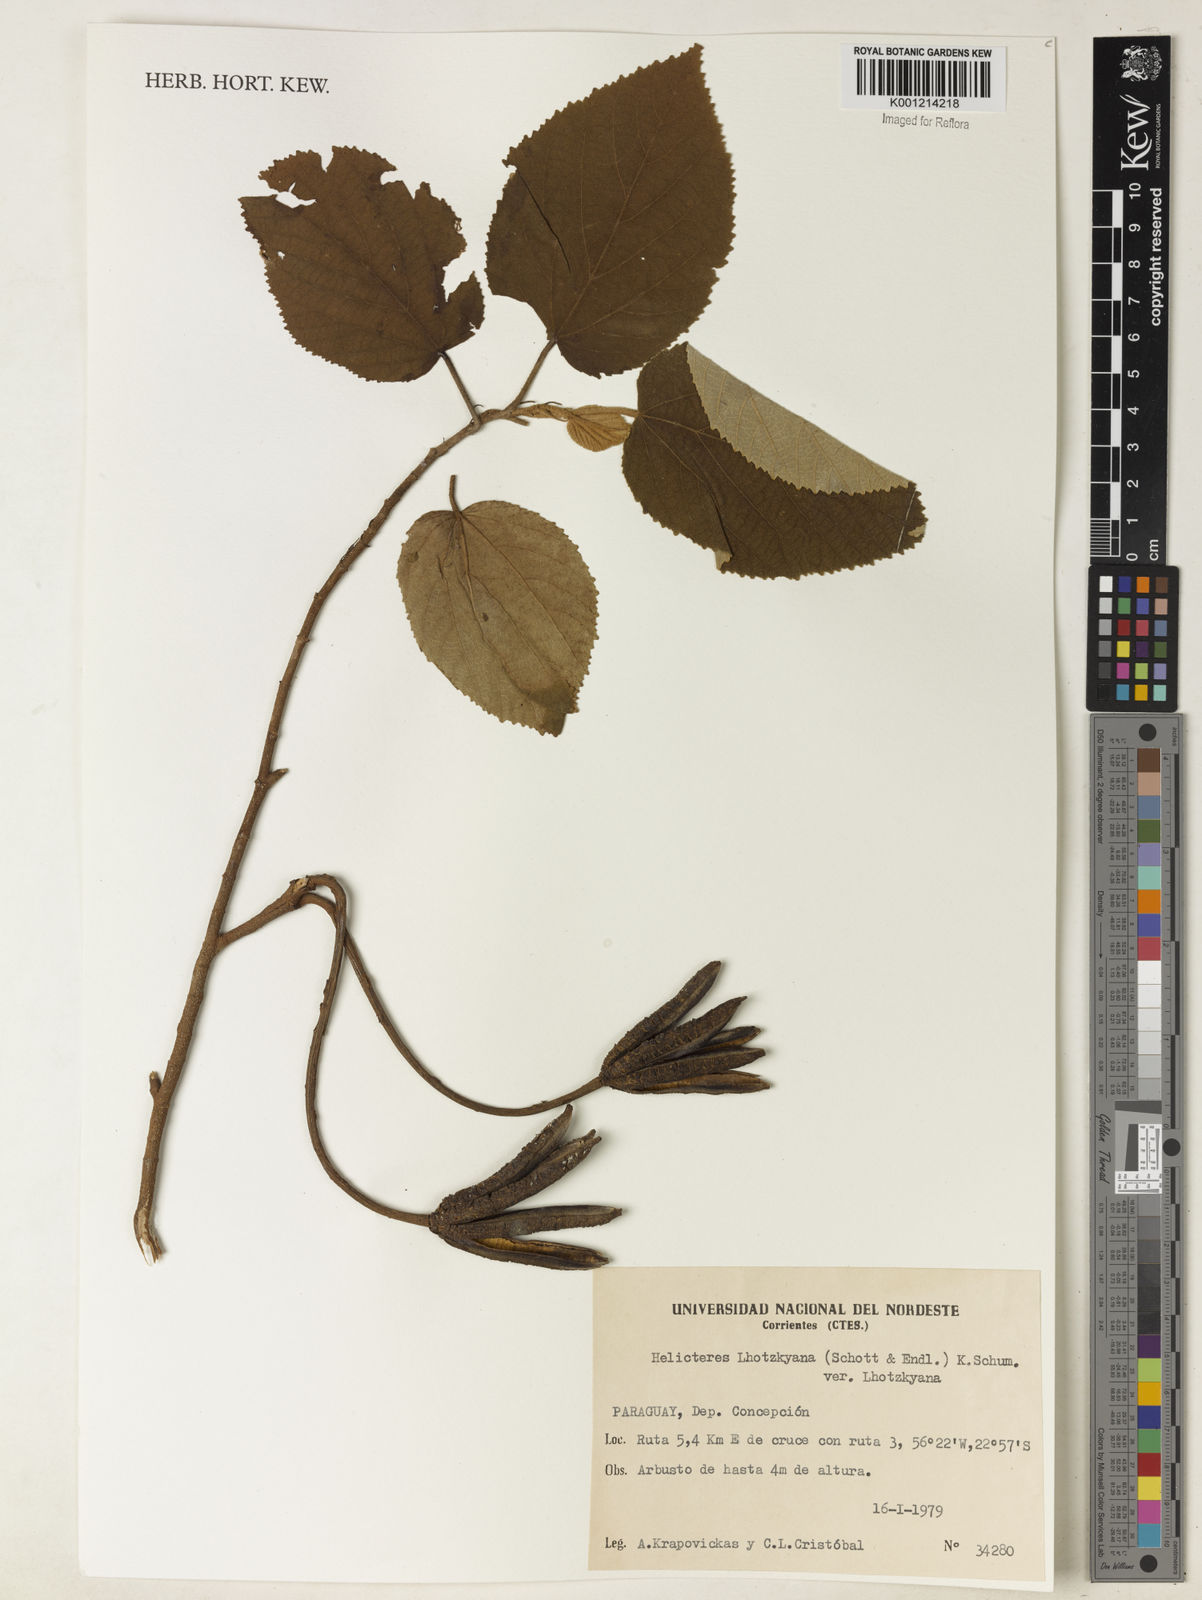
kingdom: Plantae
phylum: Tracheophyta
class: Magnoliopsida
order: Malvales
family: Malvaceae
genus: Helicteres
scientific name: Helicteres lhotzkyana
